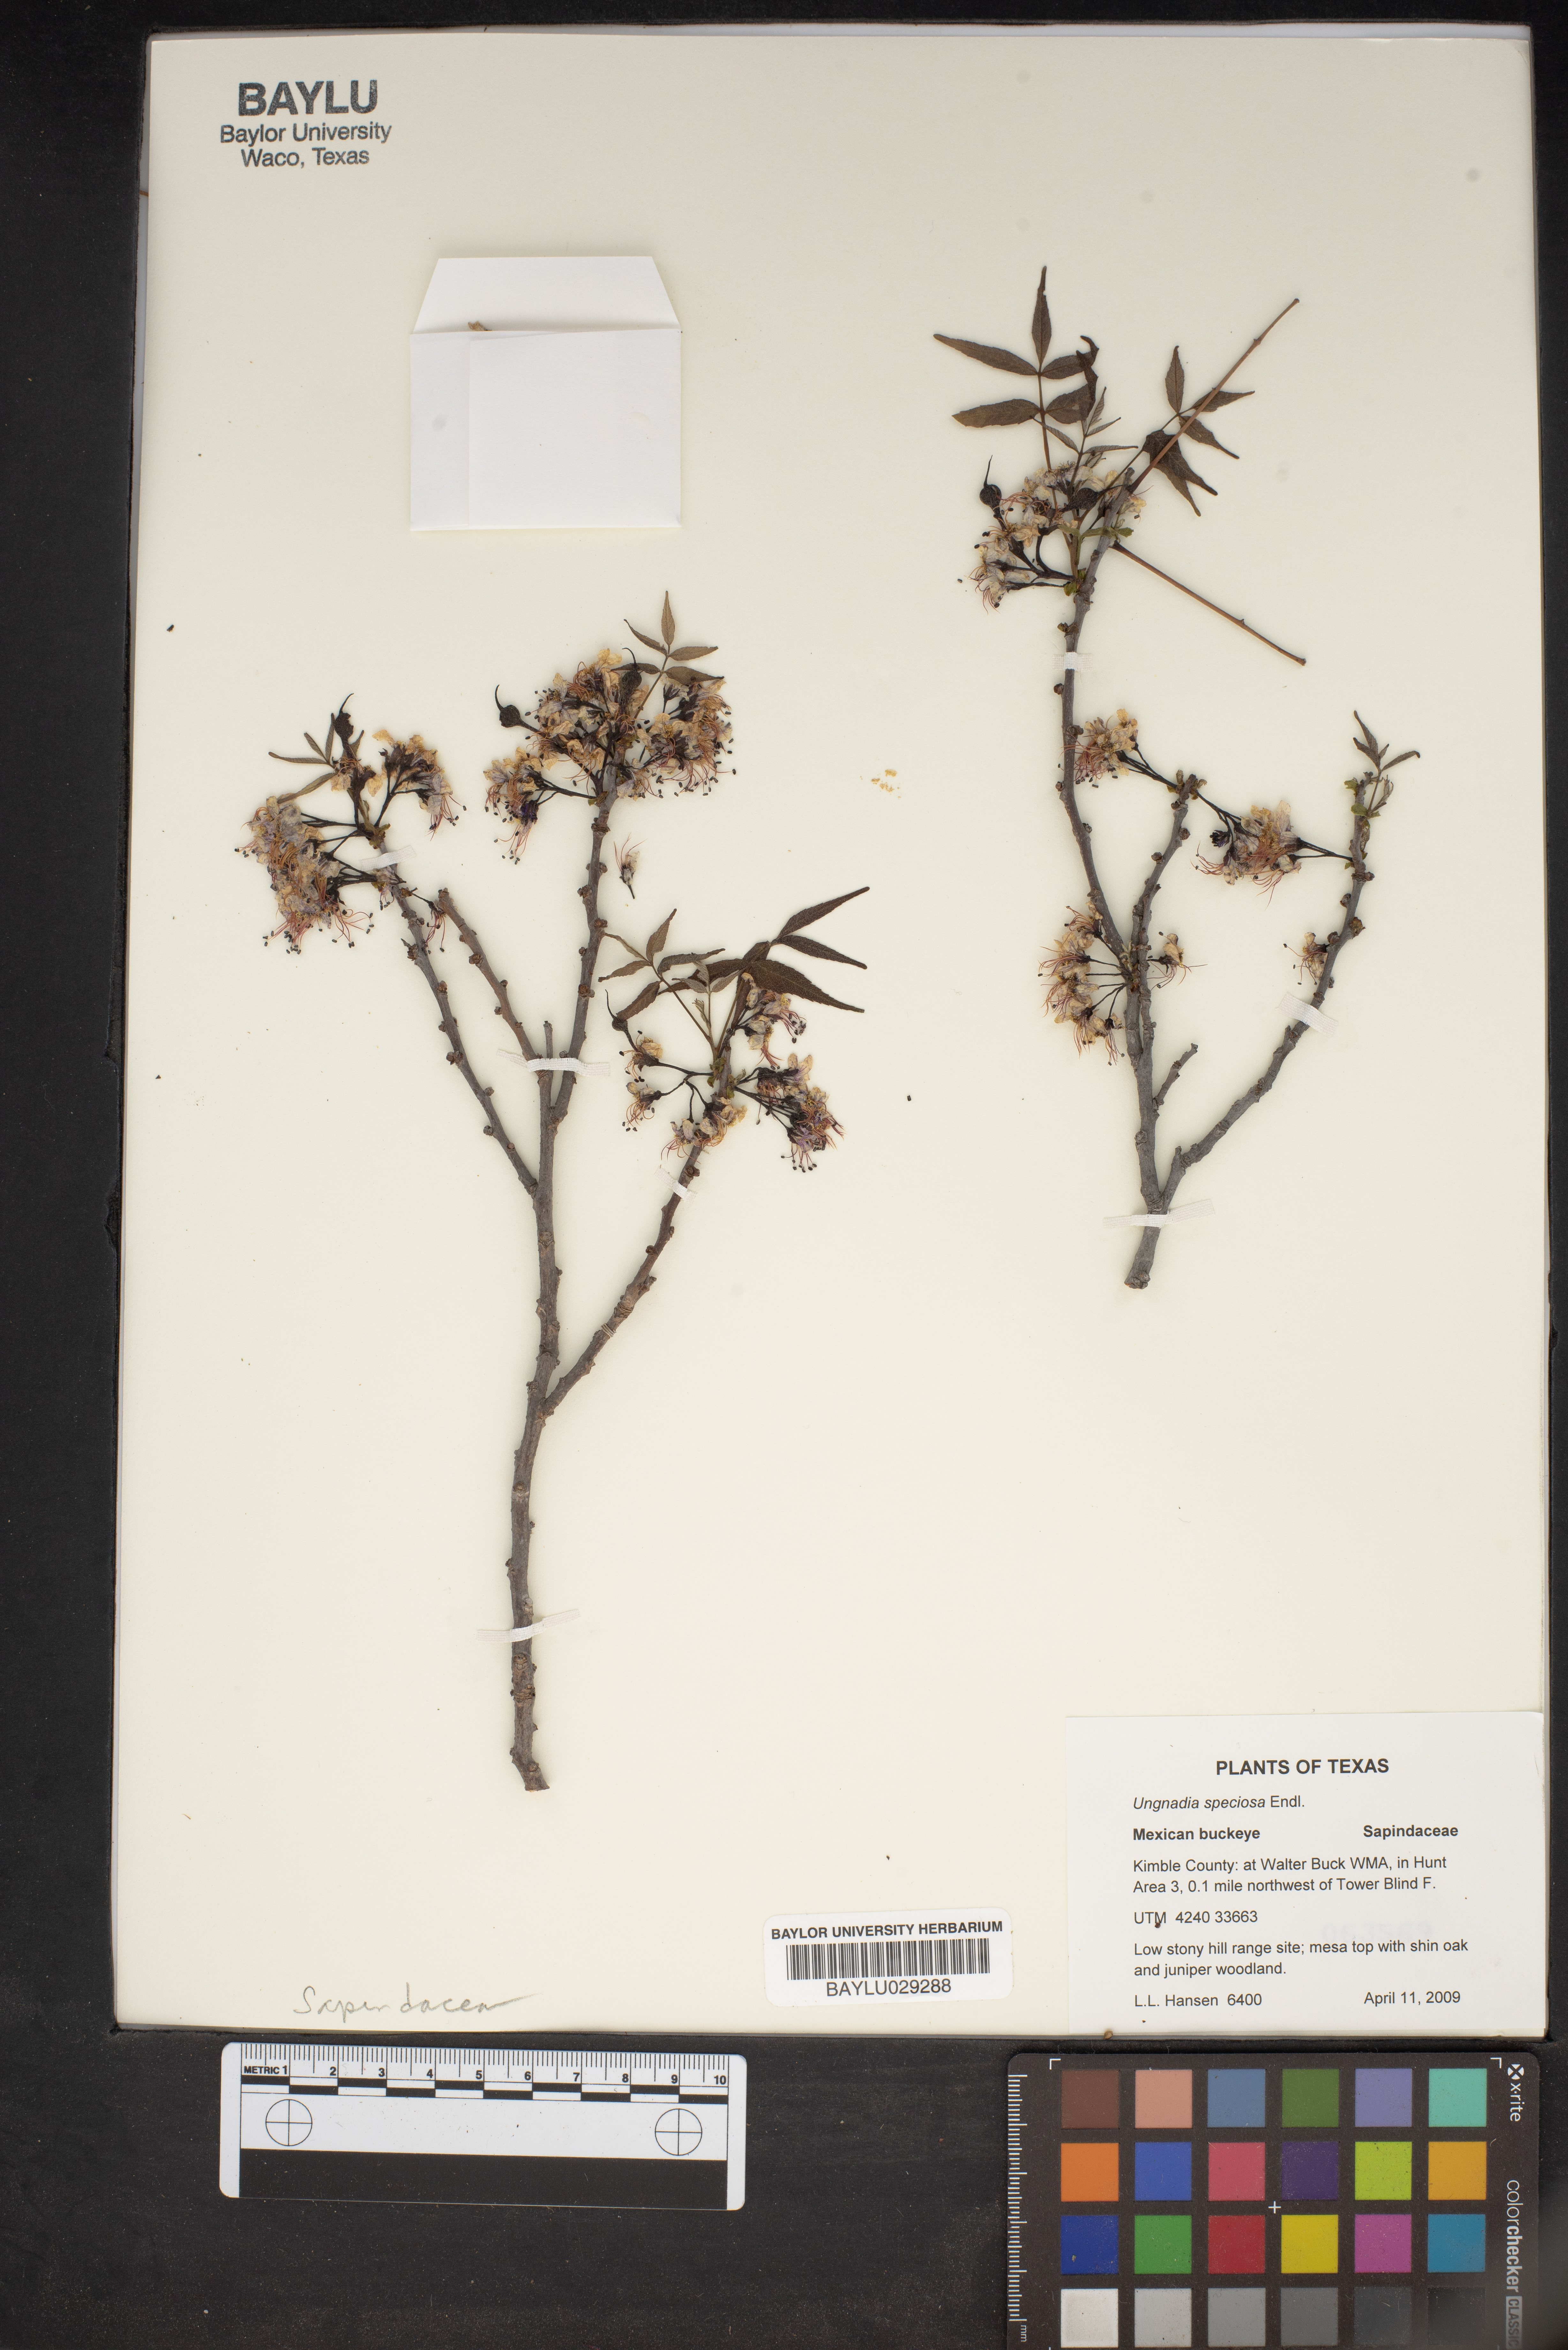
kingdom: Plantae
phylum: Tracheophyta
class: Magnoliopsida
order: Sapindales
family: Sapindaceae
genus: Ungnadia
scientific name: Ungnadia speciosa
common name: Texas-buckeye
